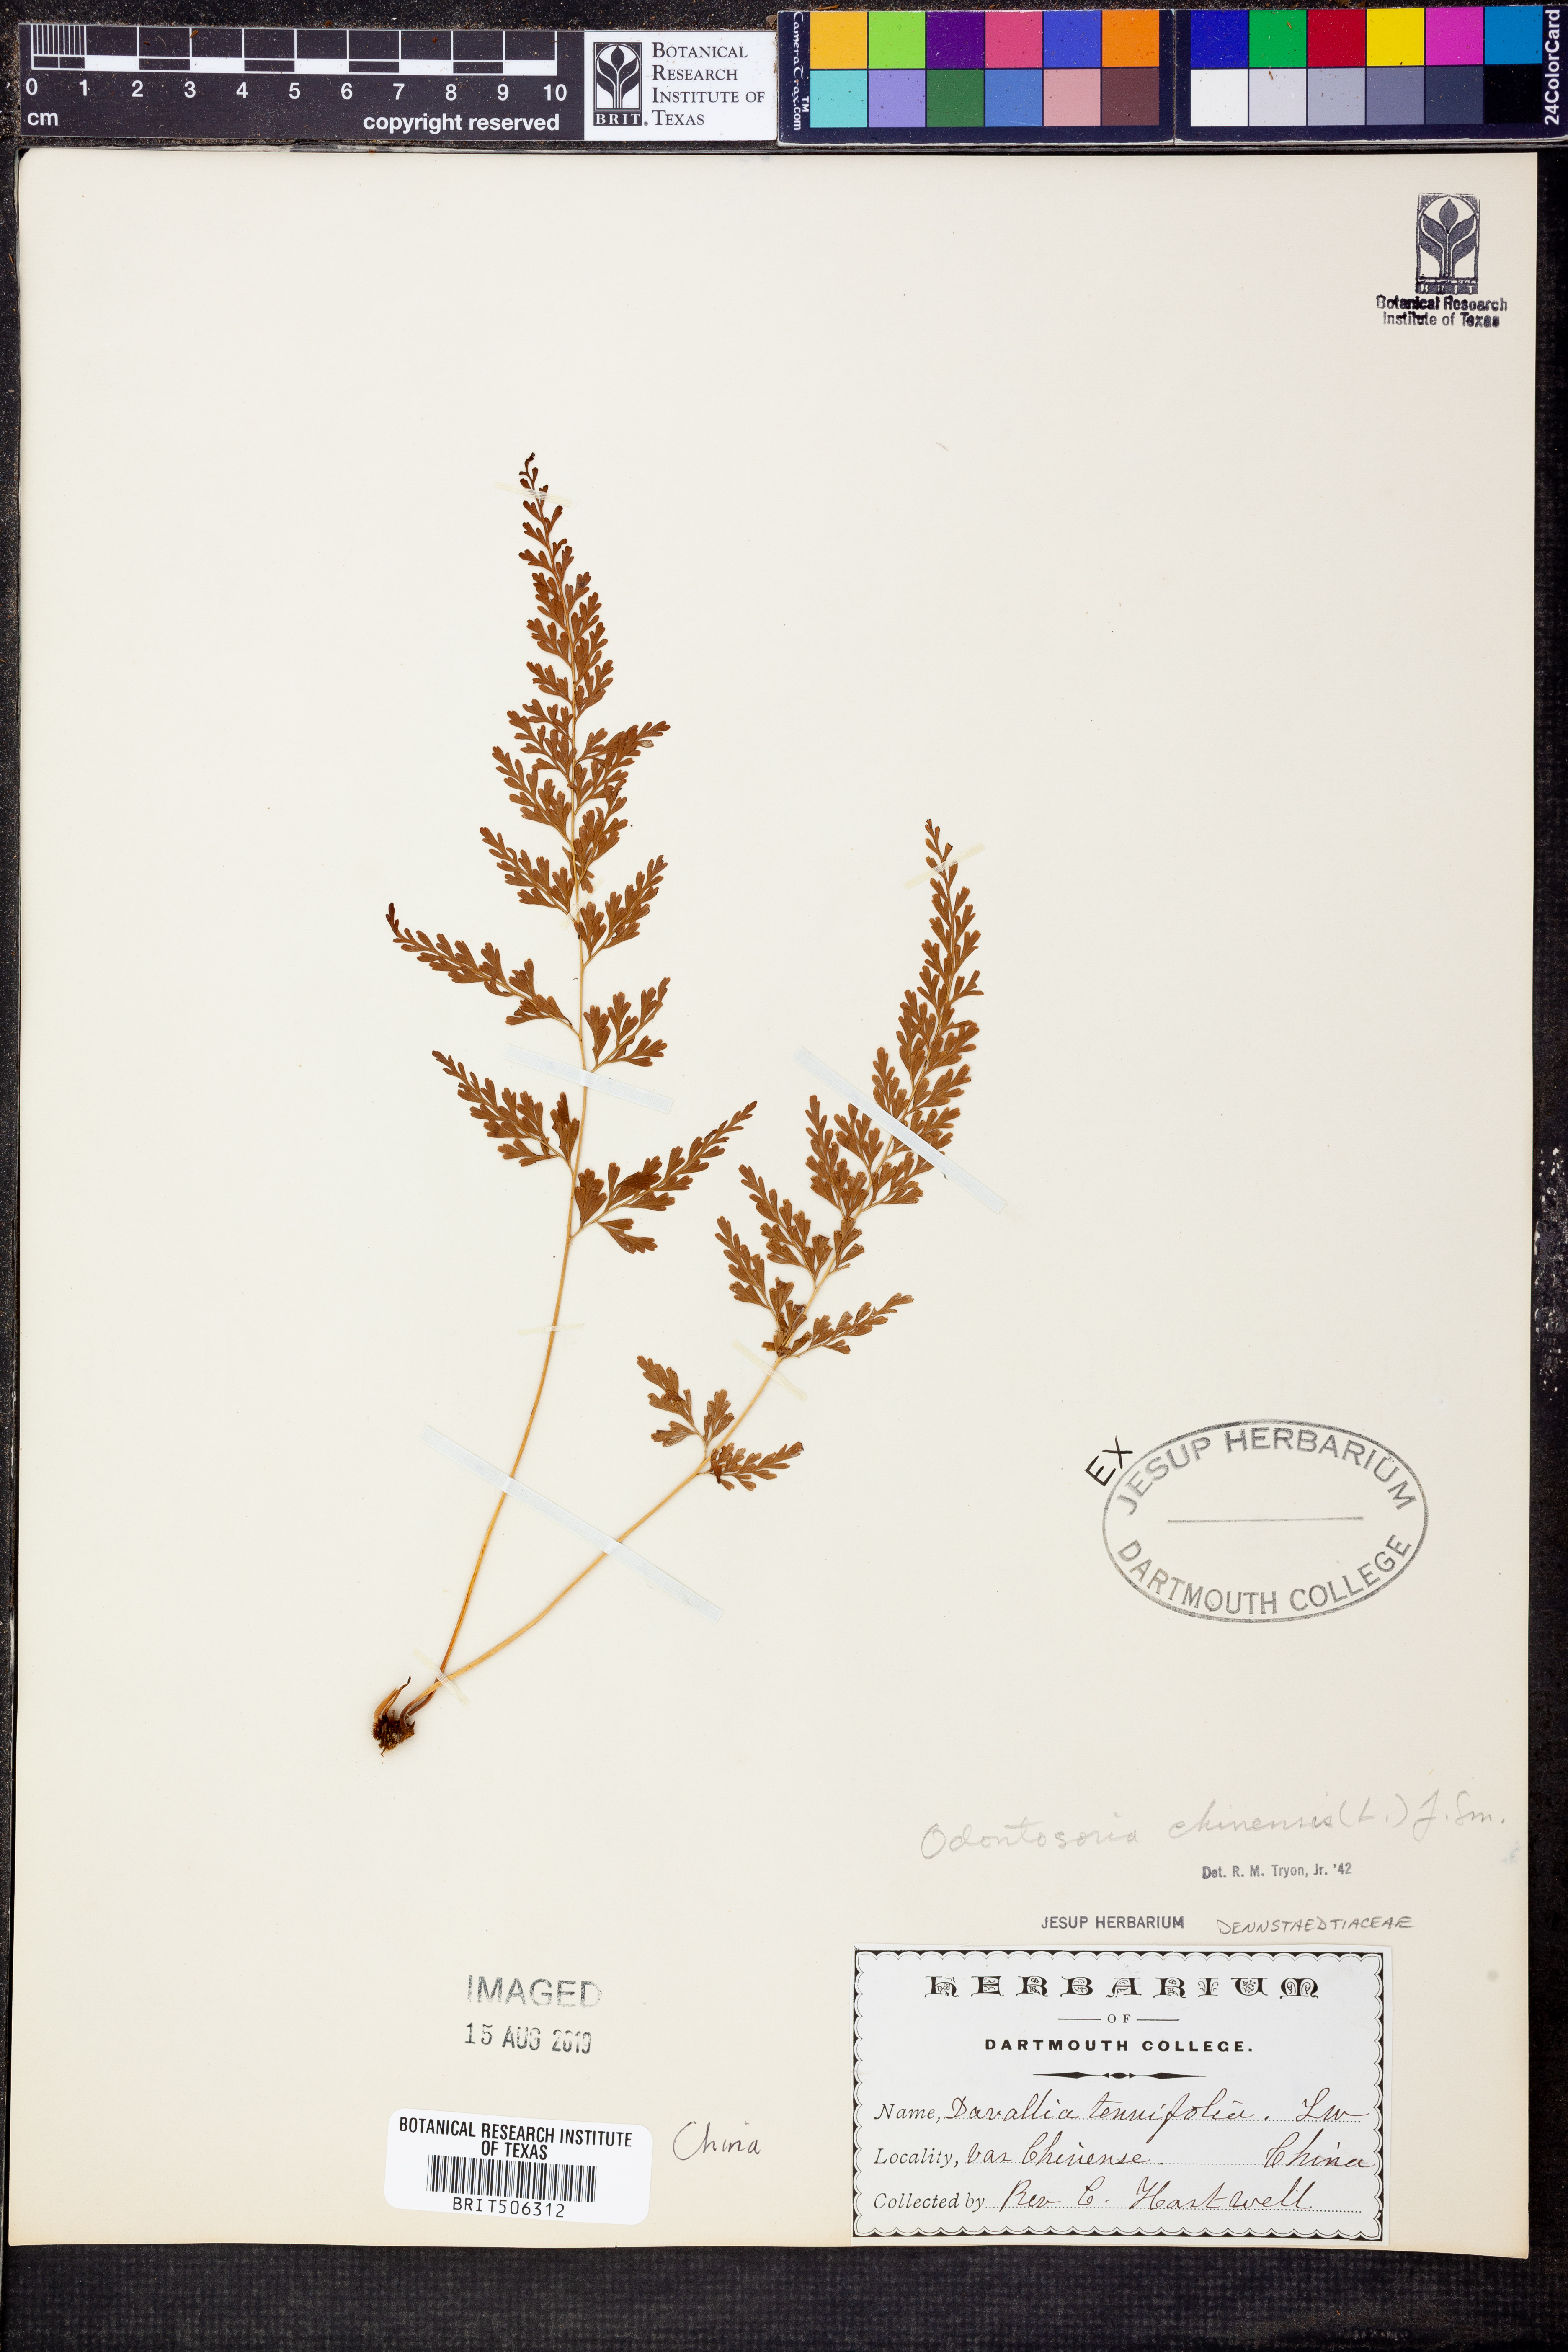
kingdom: Plantae
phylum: Tracheophyta
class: Polypodiopsida
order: Polypodiales
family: Lindsaeaceae
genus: Odontosoria
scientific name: Odontosoria chinensis
